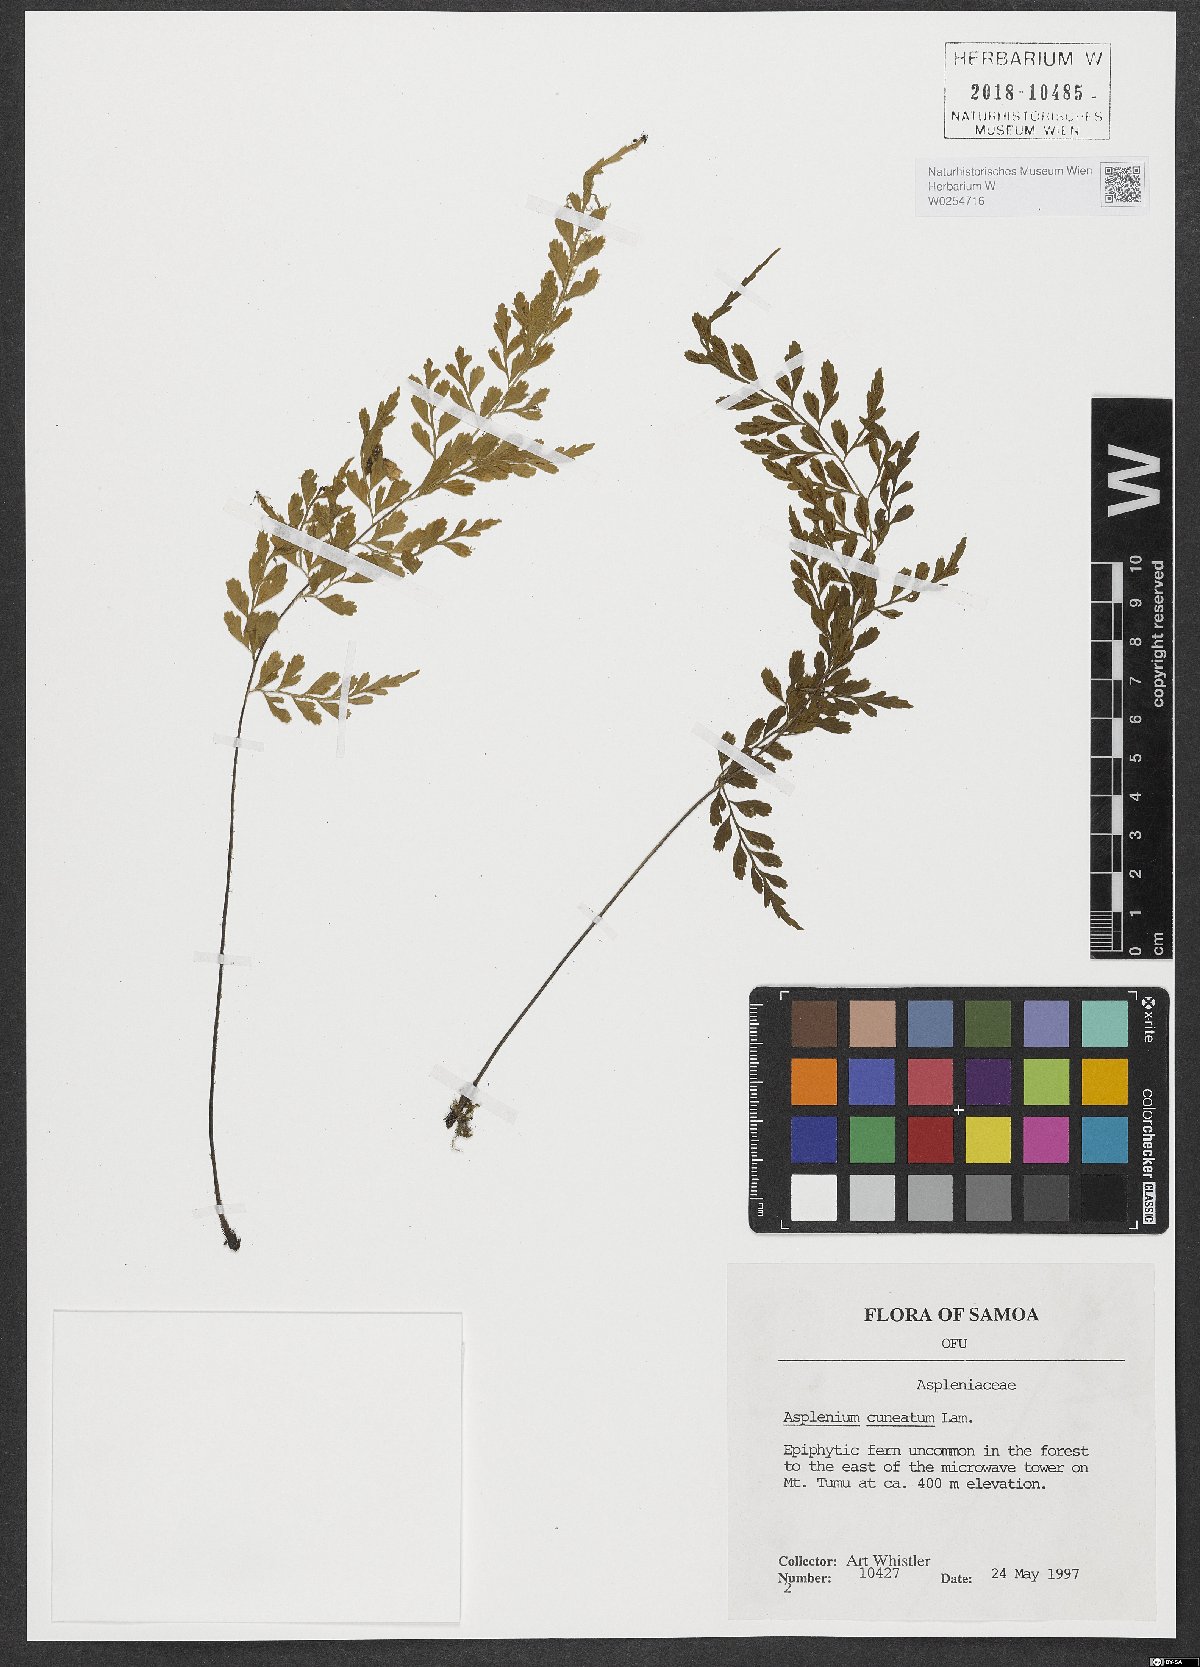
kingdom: Plantae
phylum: Tracheophyta
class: Polypodiopsida
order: Polypodiales
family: Aspleniaceae
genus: Asplenium
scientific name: Asplenium cuneatum
